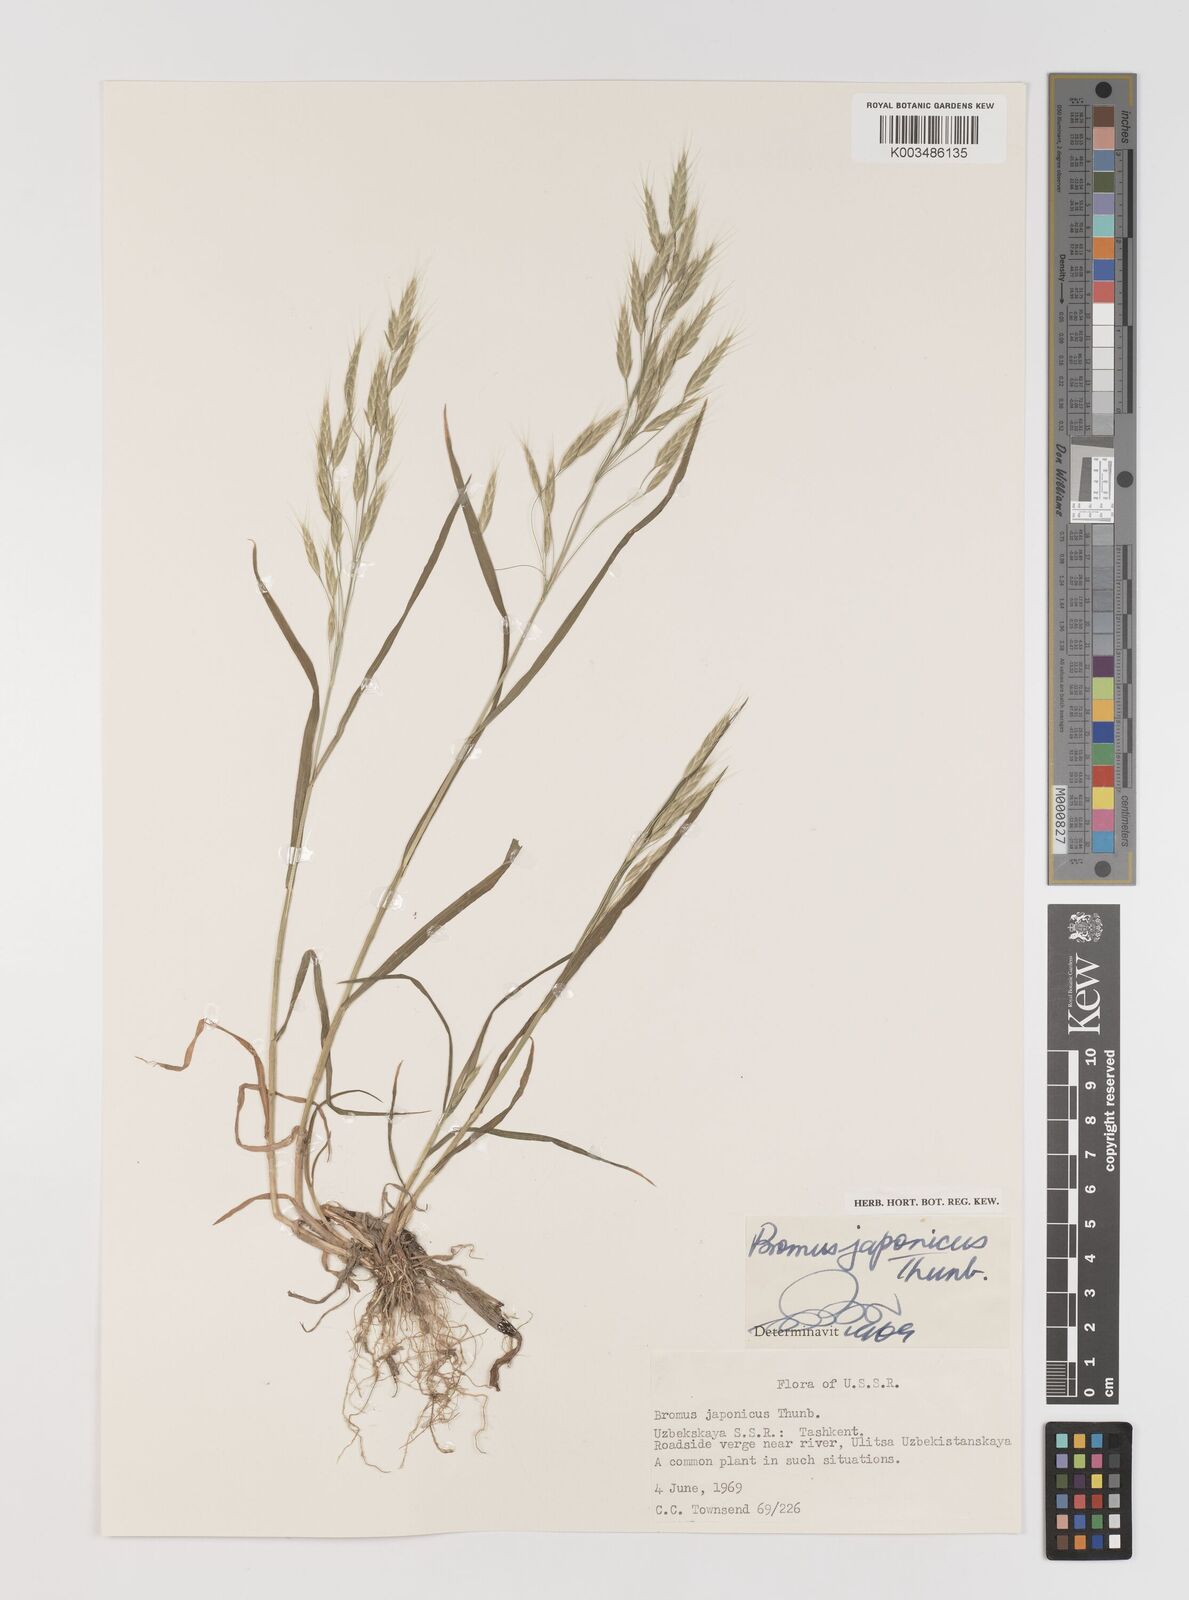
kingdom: Plantae
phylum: Tracheophyta
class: Liliopsida
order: Poales
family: Poaceae
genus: Bromus
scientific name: Bromus japonicus
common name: Japanese brome
